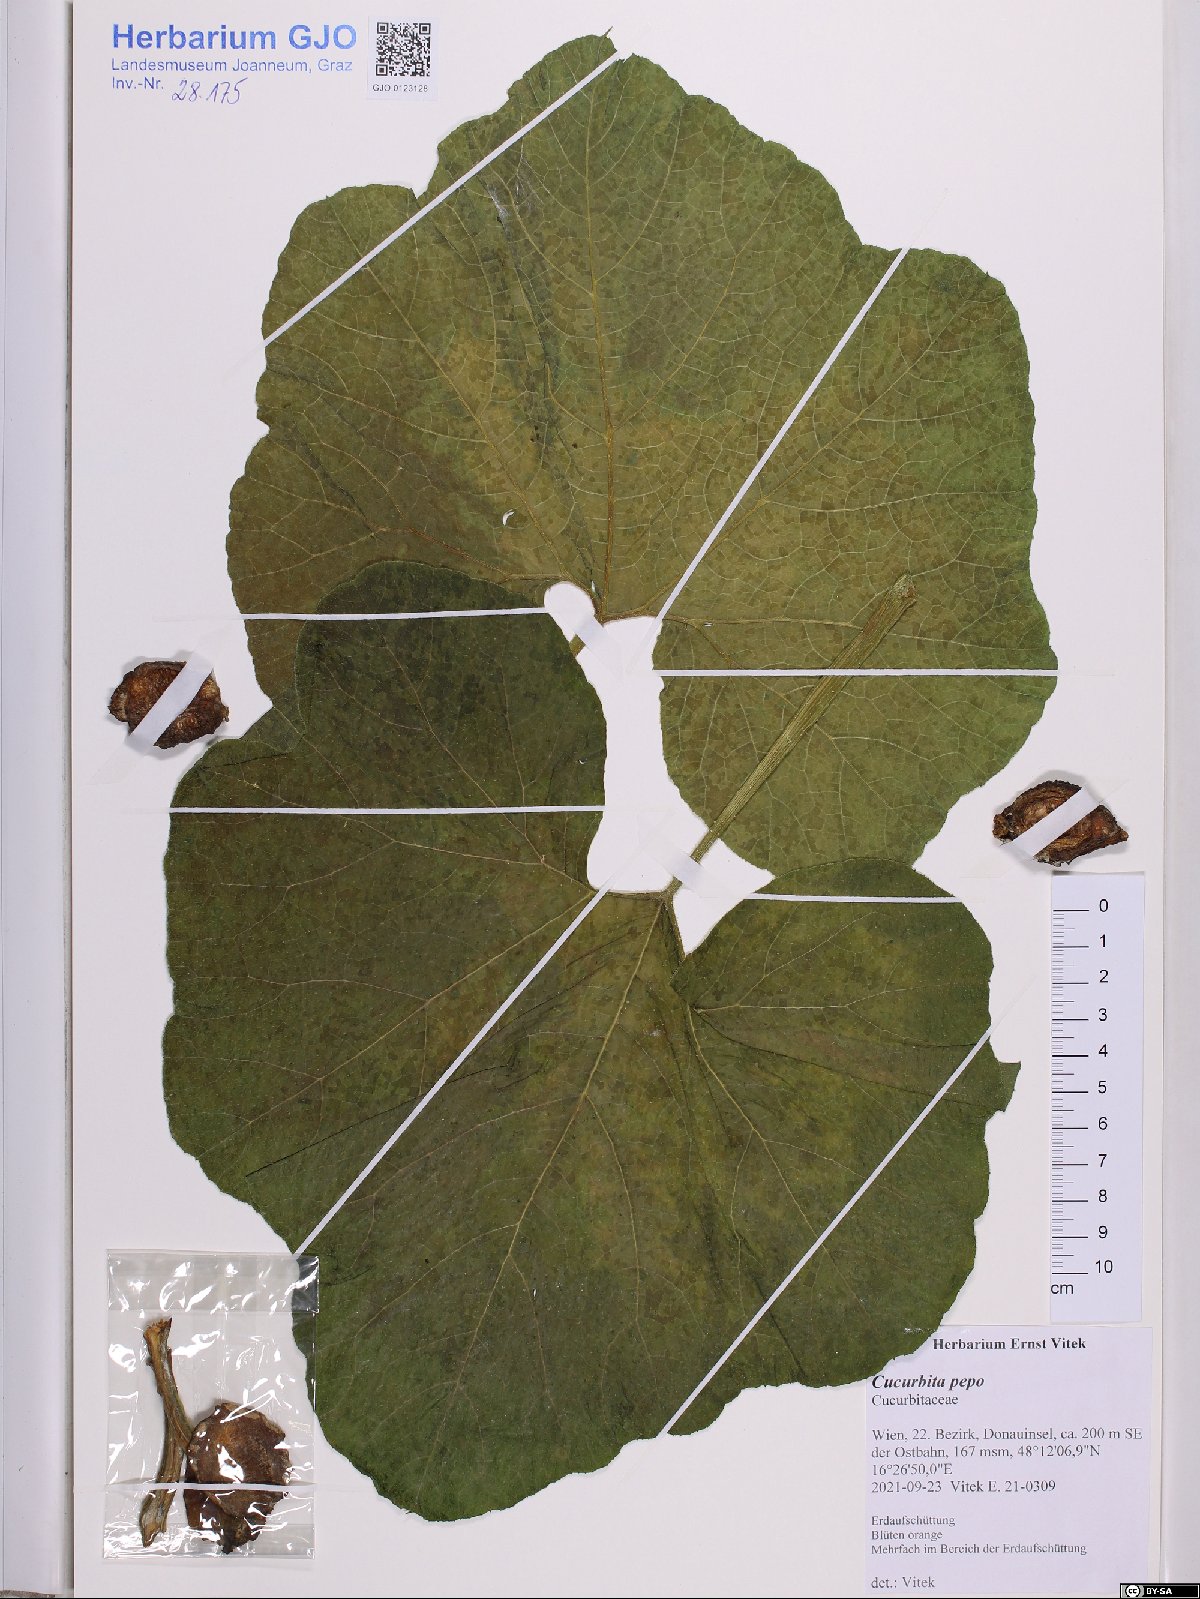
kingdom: Plantae
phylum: Tracheophyta
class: Magnoliopsida
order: Cucurbitales
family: Cucurbitaceae
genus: Cucurbita
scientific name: Cucurbita pepo
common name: Marrow
